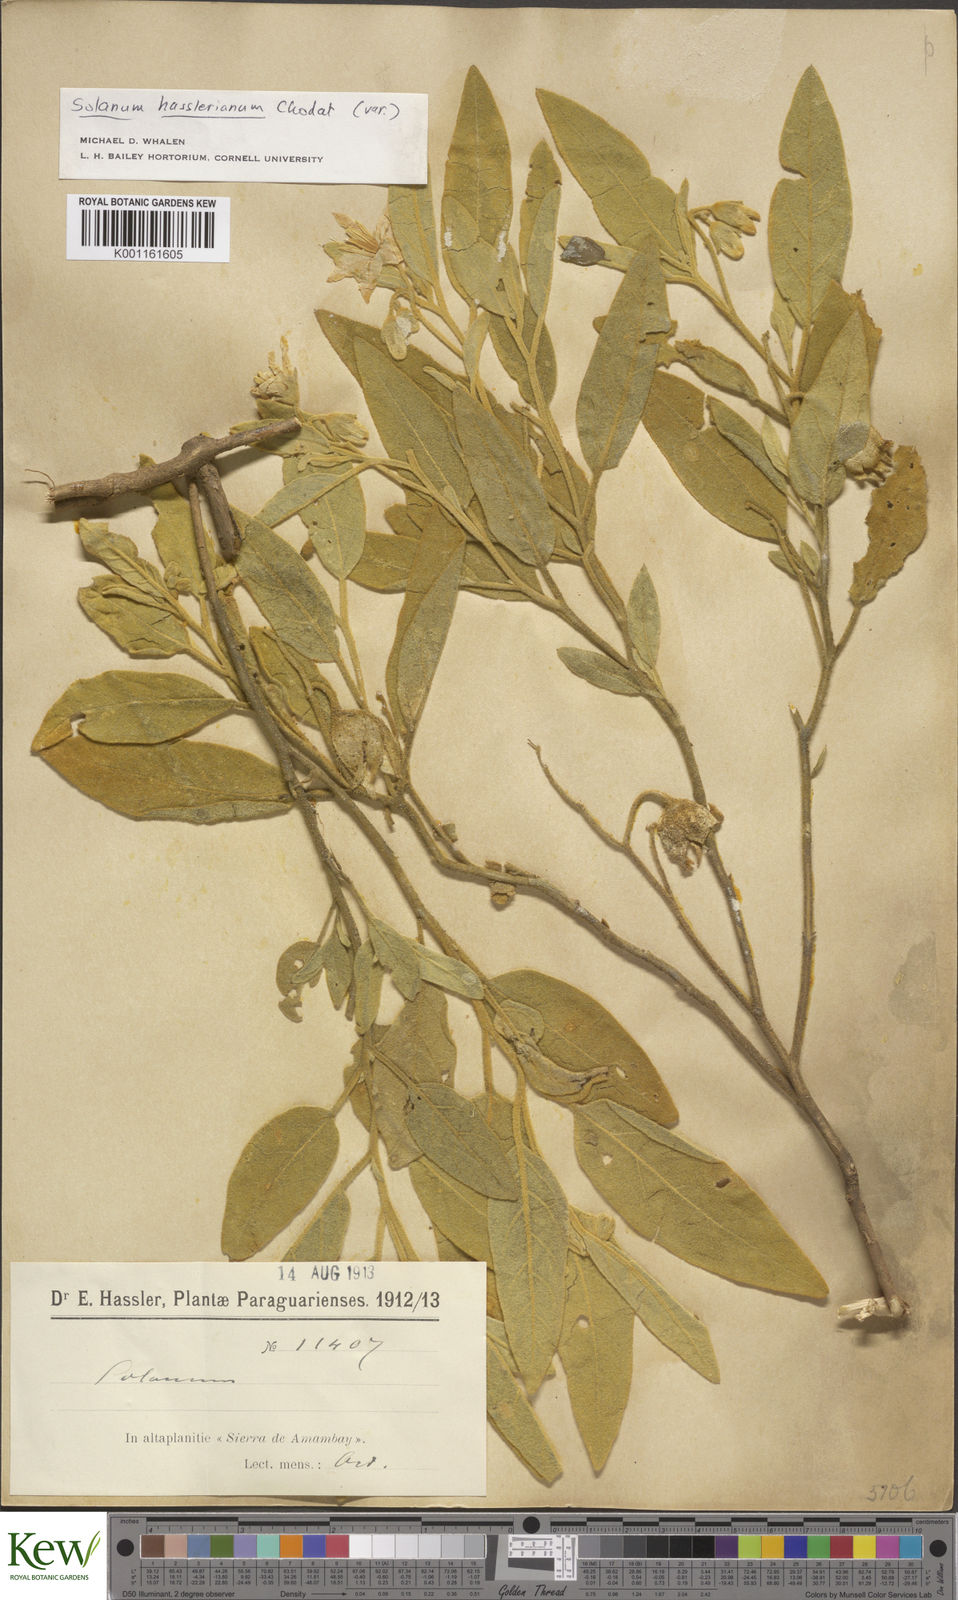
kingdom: Plantae
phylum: Tracheophyta
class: Magnoliopsida
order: Solanales
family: Solanaceae
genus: Solanum
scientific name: Solanum hasslerianum
